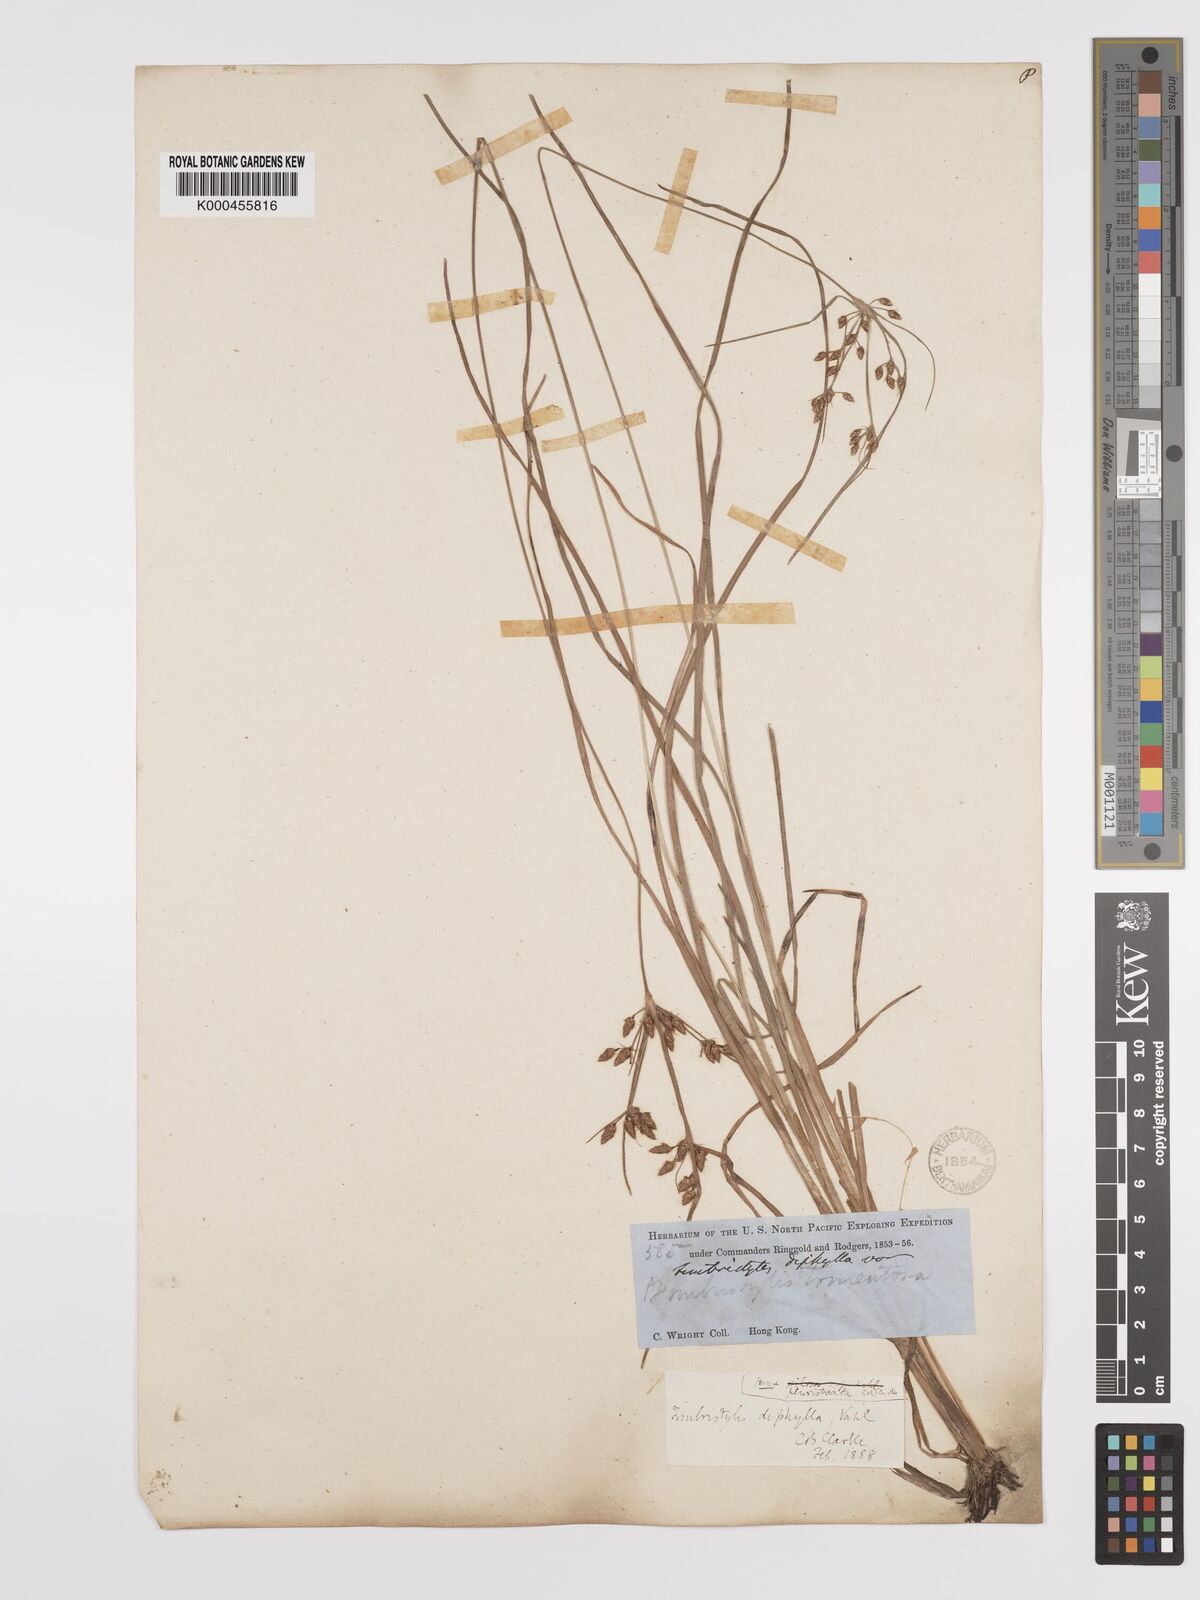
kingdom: Plantae
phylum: Tracheophyta
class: Liliopsida
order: Poales
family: Cyperaceae
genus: Fimbristylis
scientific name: Fimbristylis dichotoma
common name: Forked fimbry
